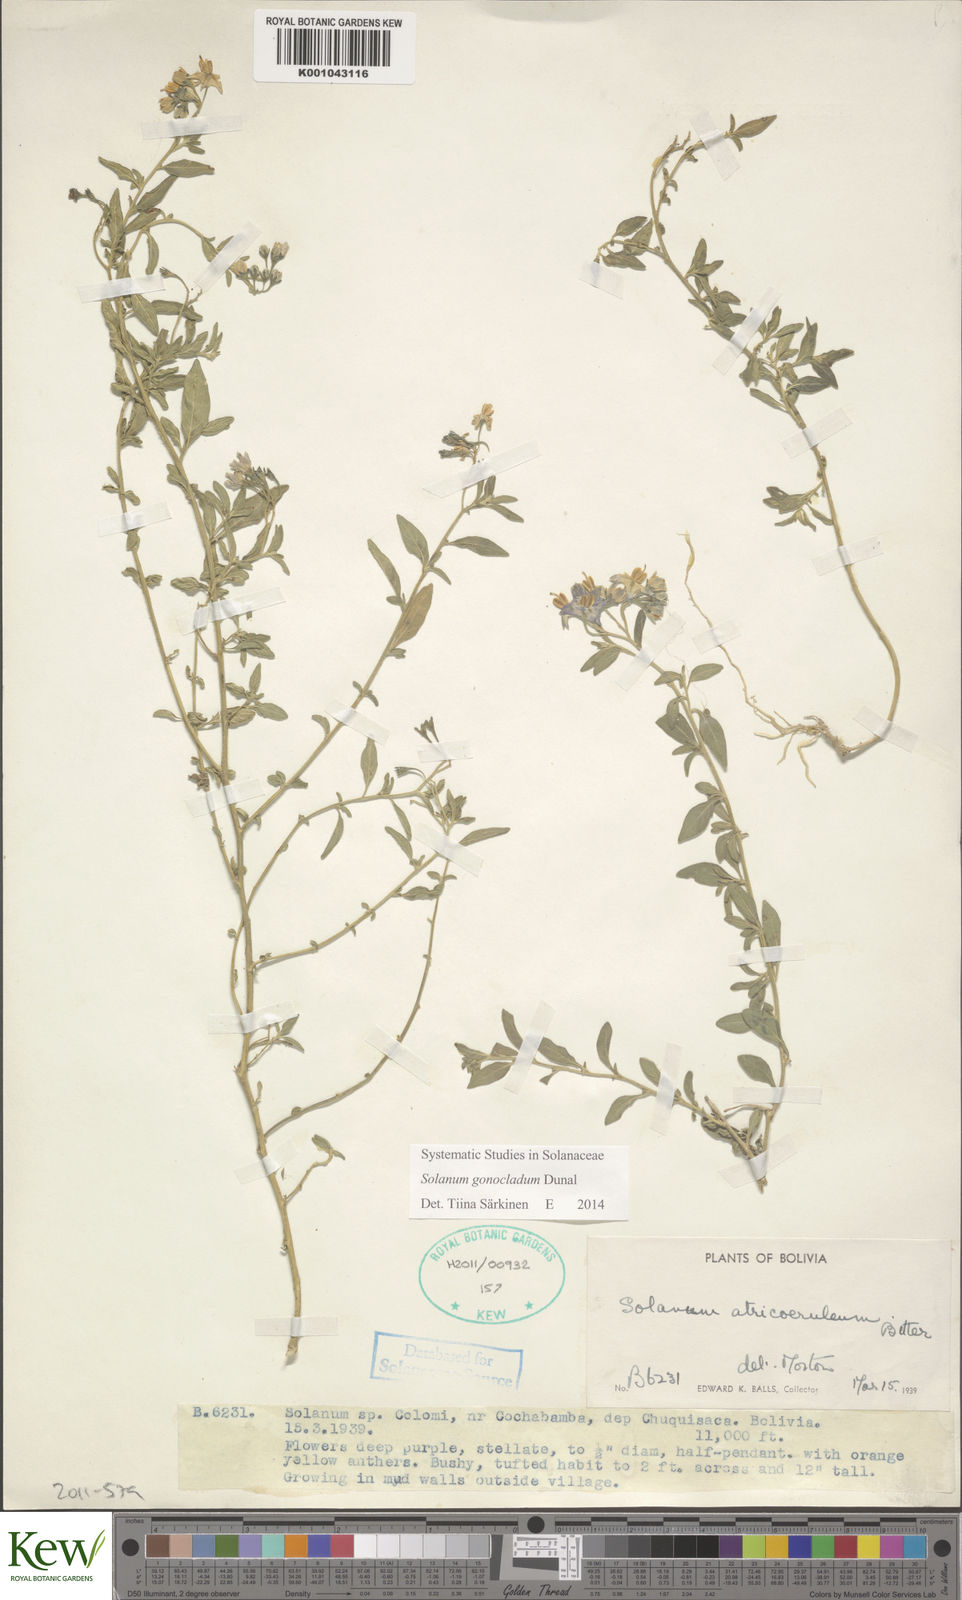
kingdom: Plantae
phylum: Tracheophyta
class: Magnoliopsida
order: Solanales
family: Solanaceae
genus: Solanum
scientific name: Solanum gonocladum
